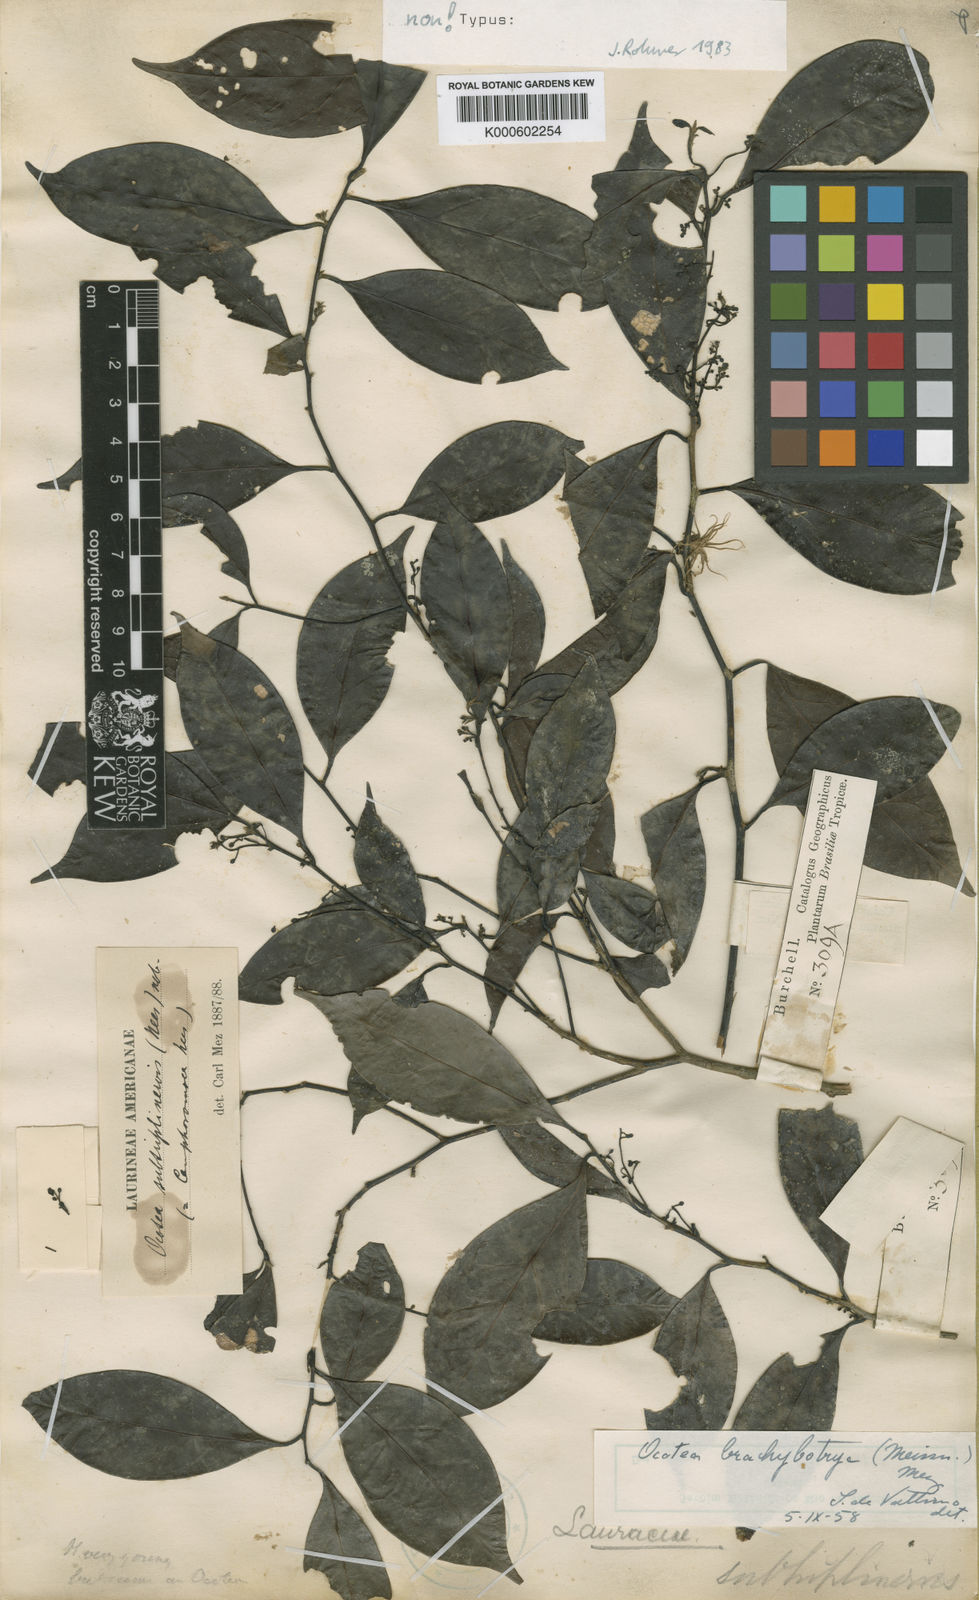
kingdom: Plantae
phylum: Tracheophyta
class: Magnoliopsida
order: Laurales
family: Lauraceae
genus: Ocotea
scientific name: Ocotea camphoromoea
